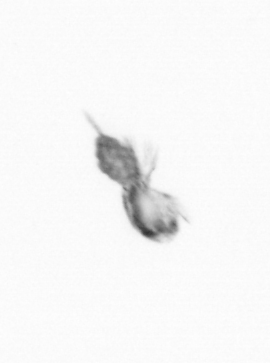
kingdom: Animalia
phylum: Arthropoda
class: Copepoda
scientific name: Copepoda
